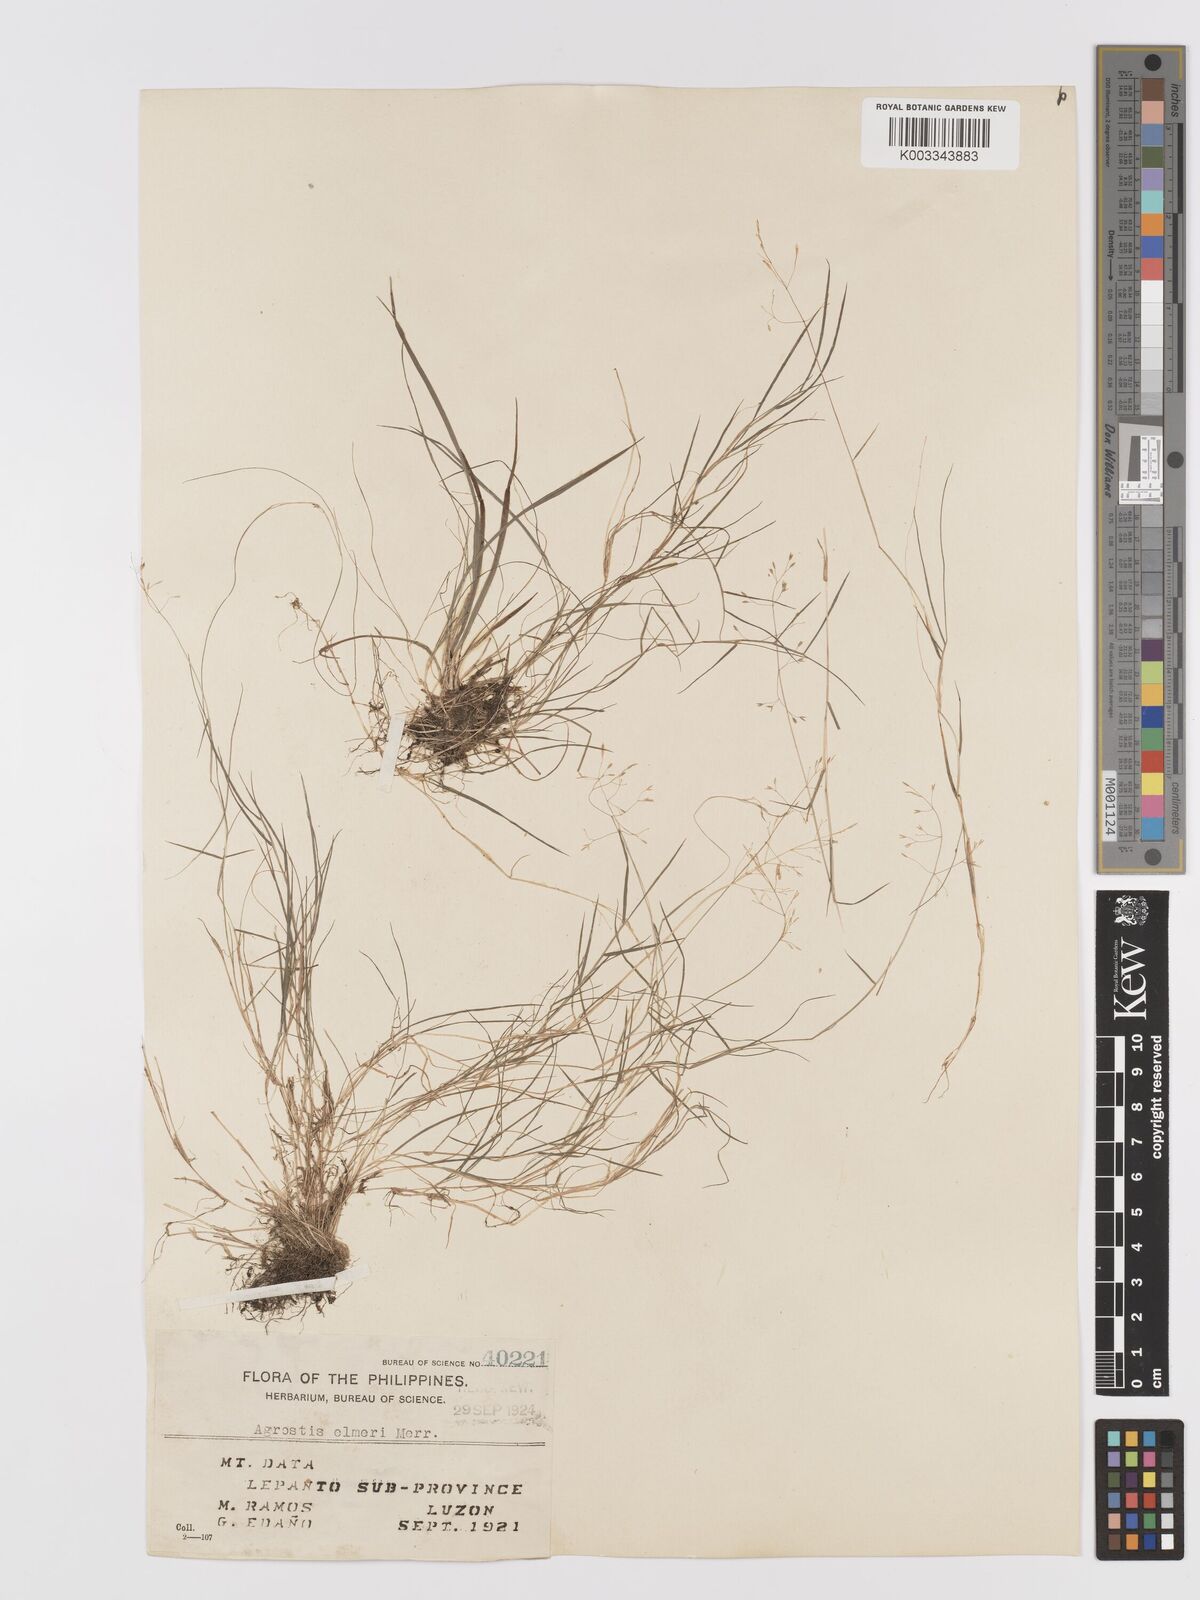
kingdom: Plantae
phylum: Tracheophyta
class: Liliopsida
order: Poales
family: Poaceae
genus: Agrostis
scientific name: Agrostis infirma
